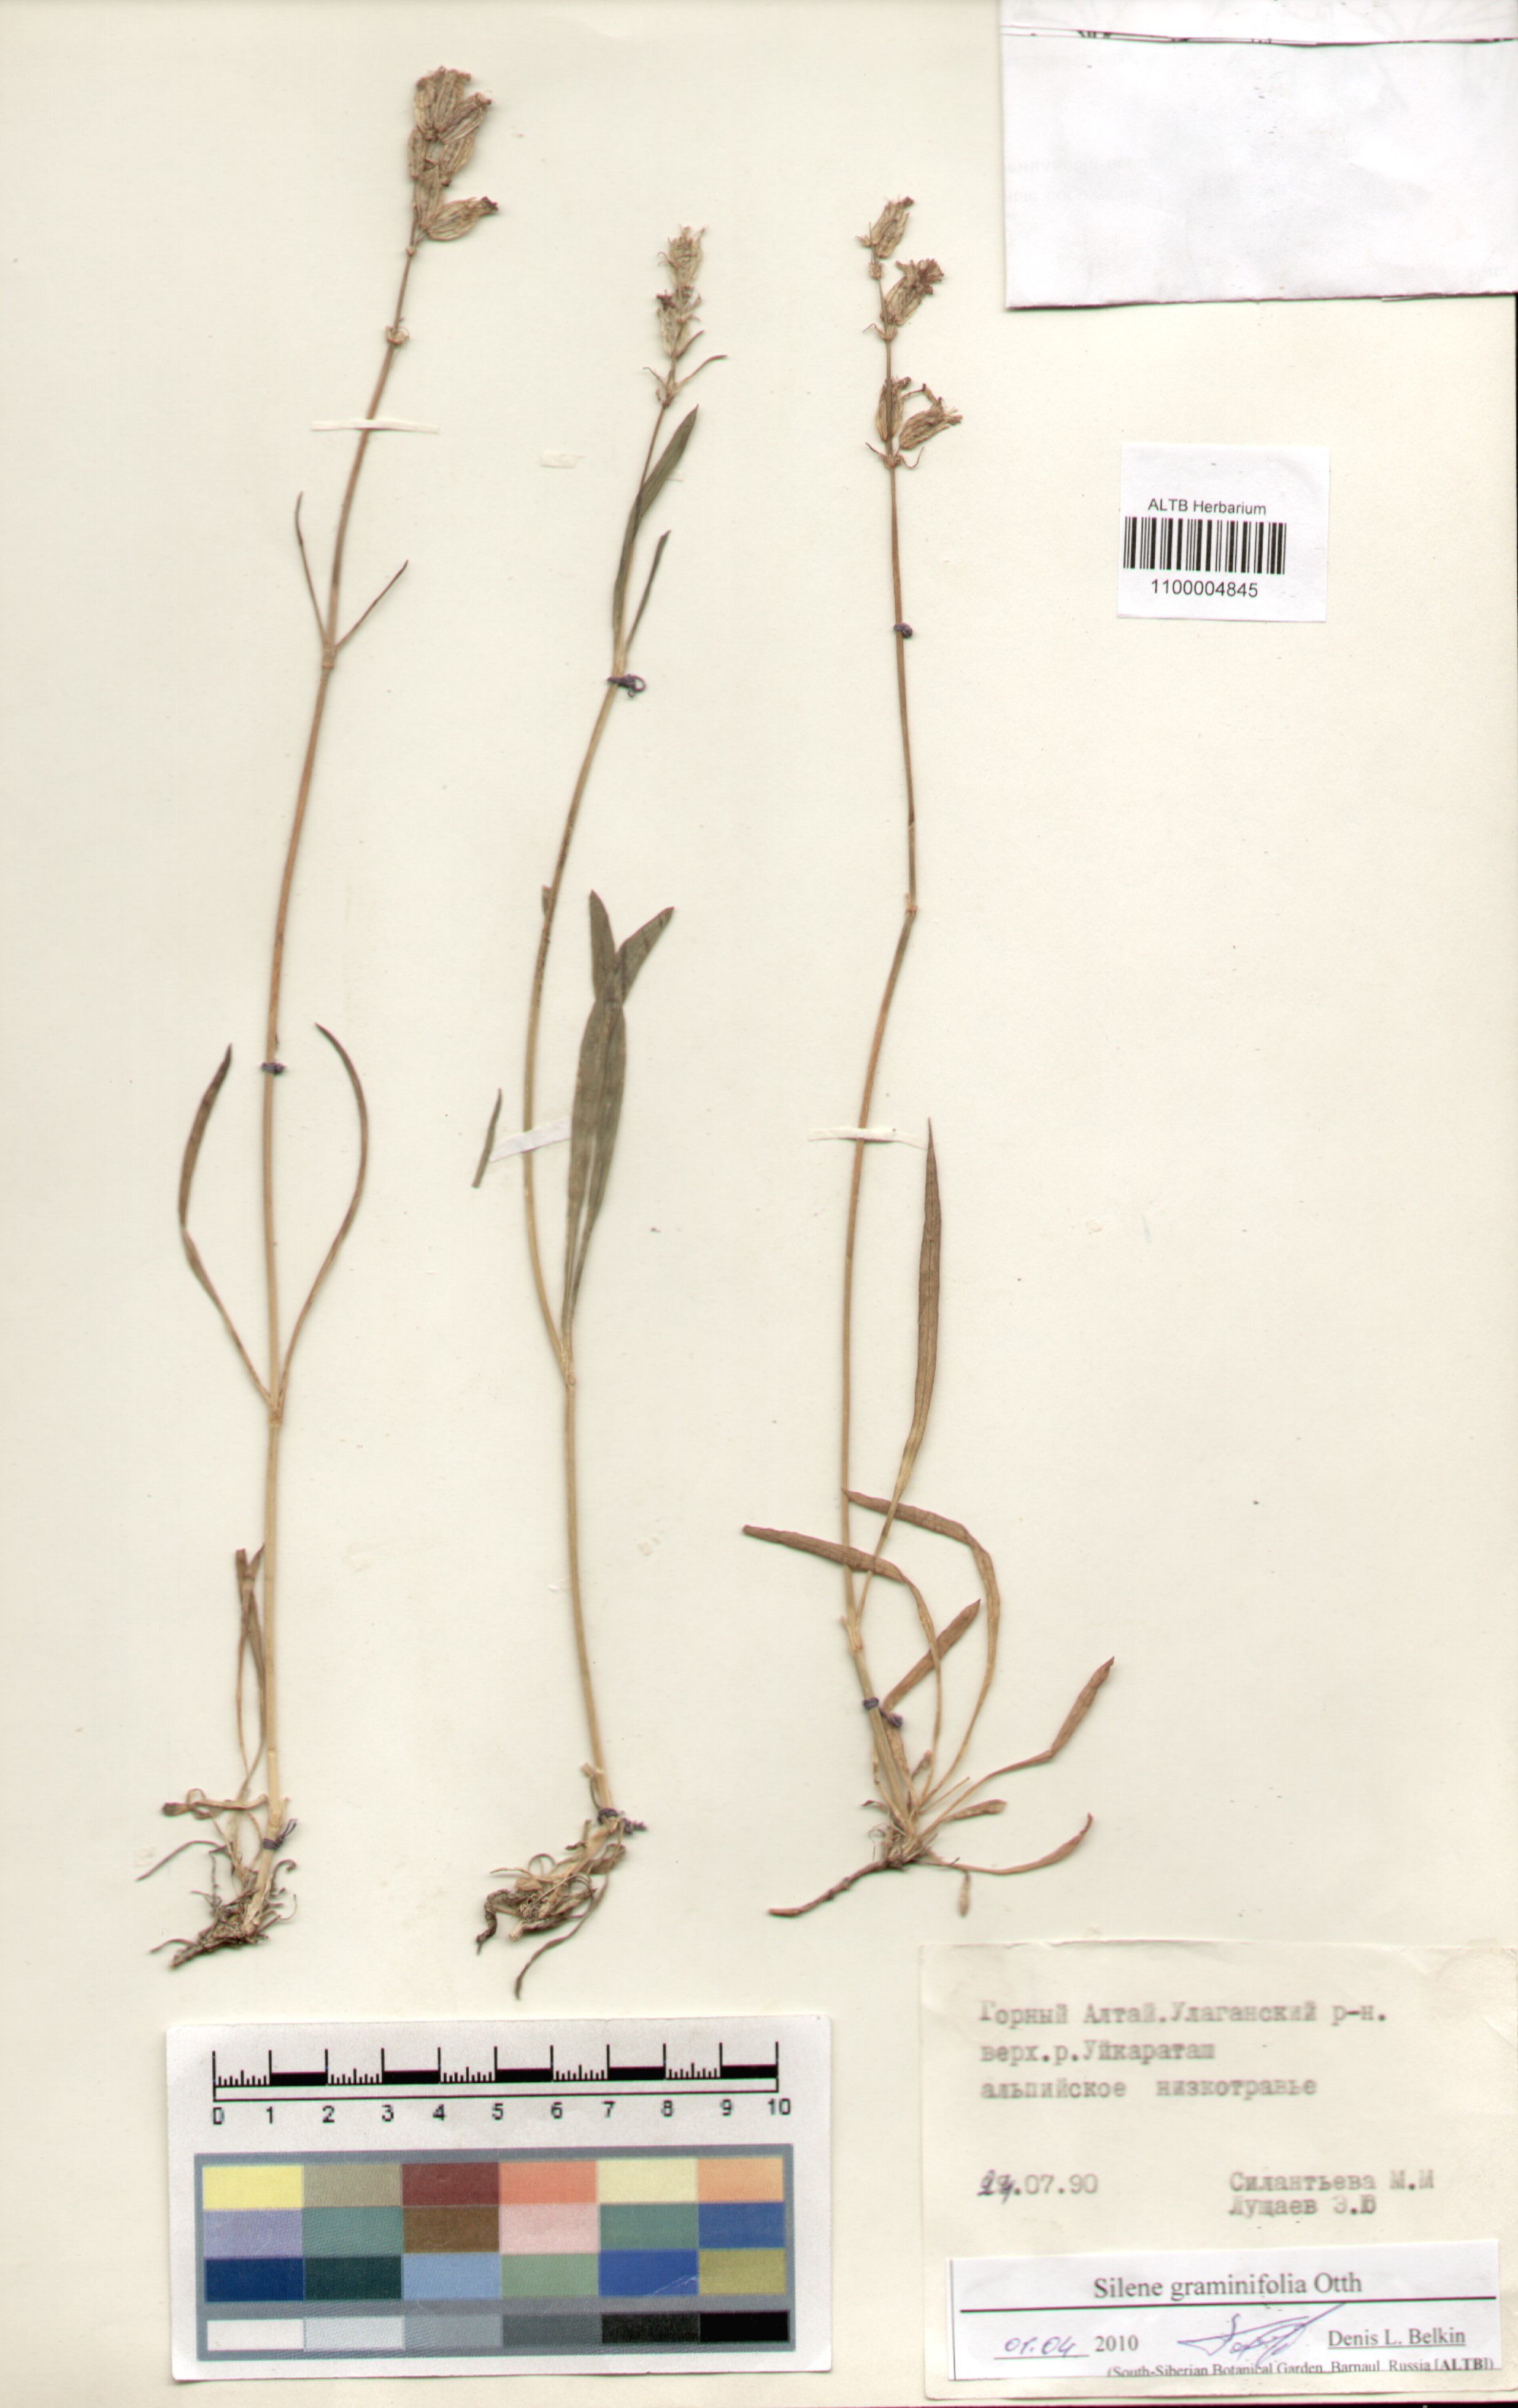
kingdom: Plantae
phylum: Tracheophyta
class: Magnoliopsida
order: Caryophyllales
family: Caryophyllaceae
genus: Silene
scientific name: Silene graminifolia
